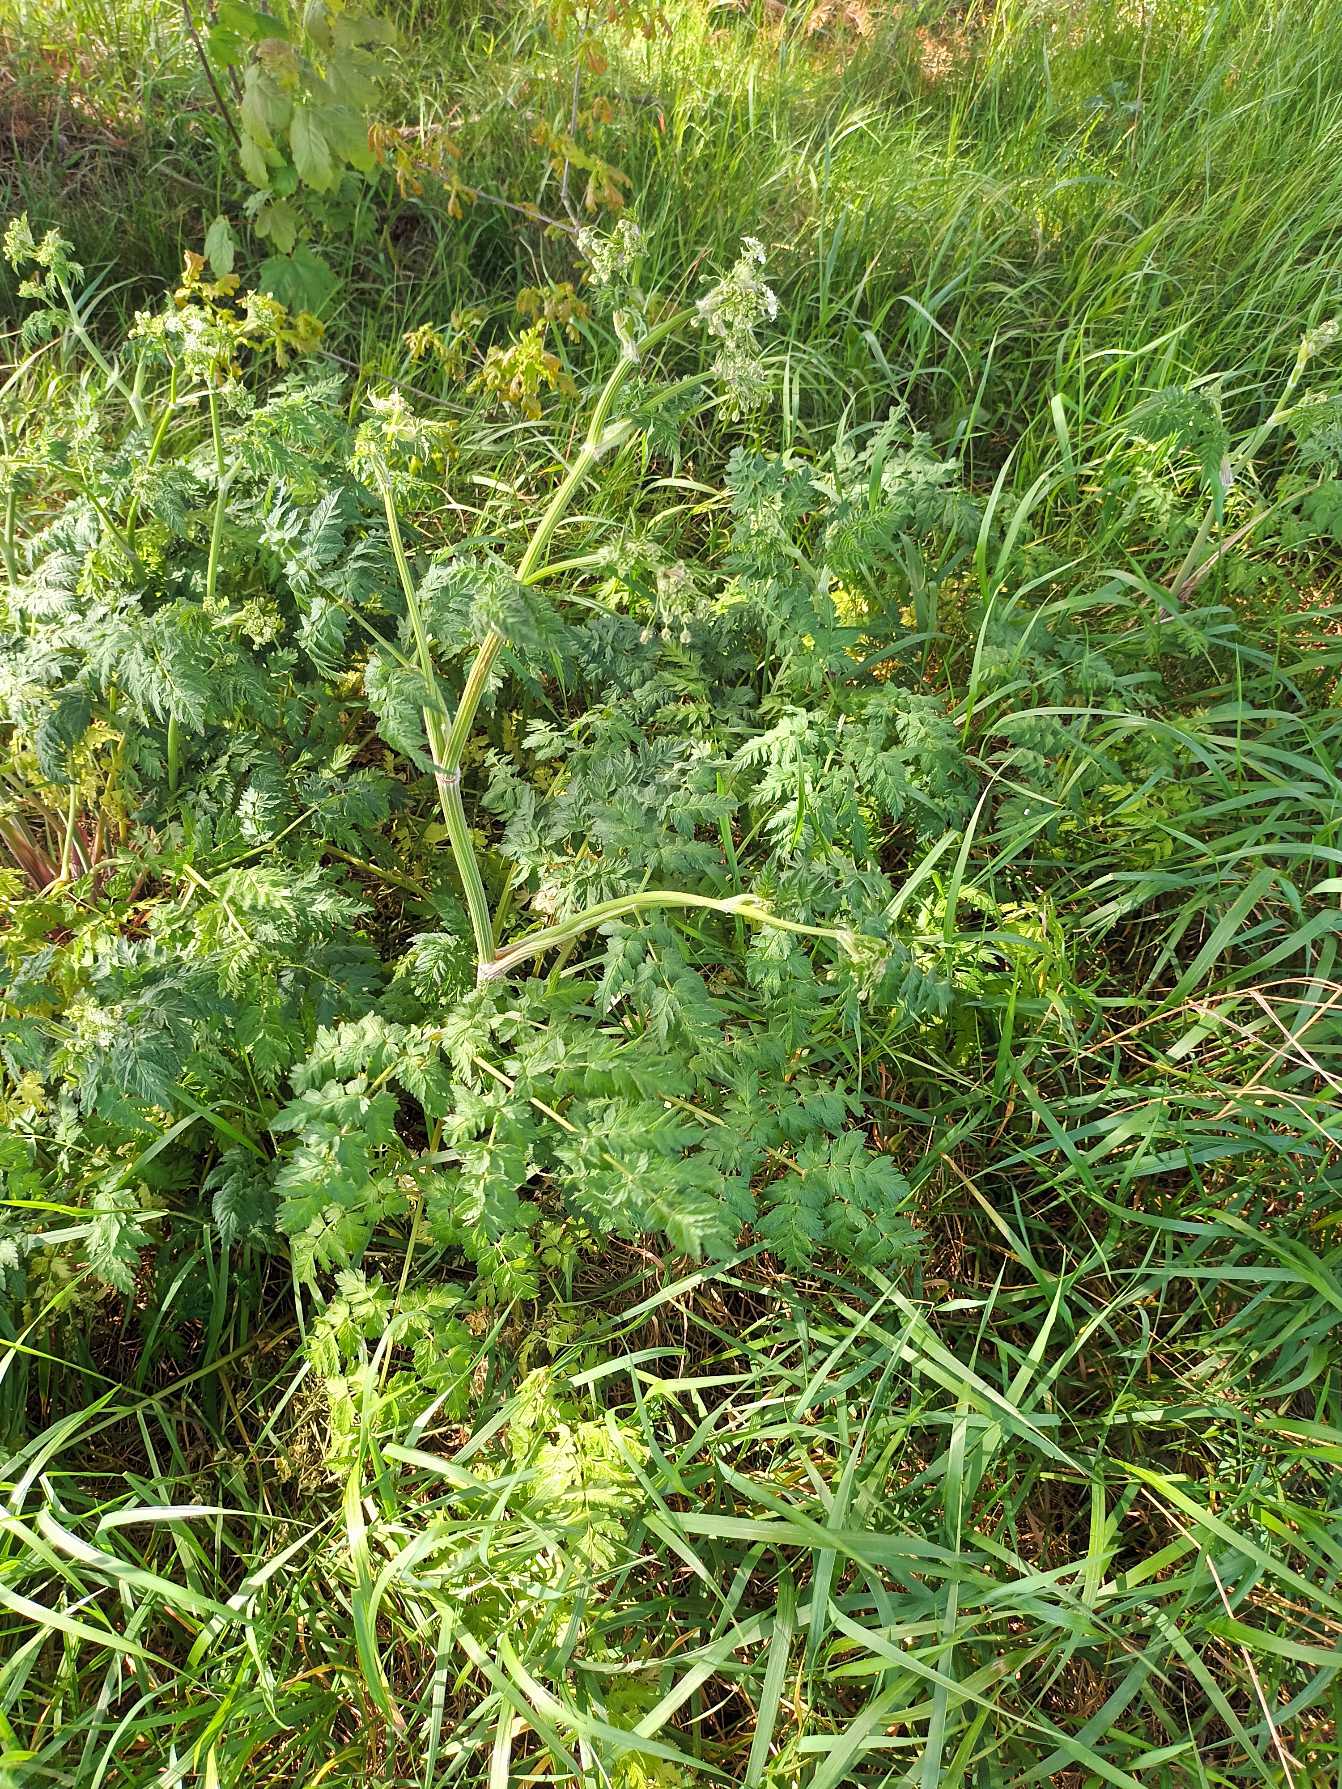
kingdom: Plantae
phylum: Tracheophyta
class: Magnoliopsida
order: Apiales
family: Apiaceae
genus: Anthriscus
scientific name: Anthriscus sylvestris
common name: Vild kørvel
